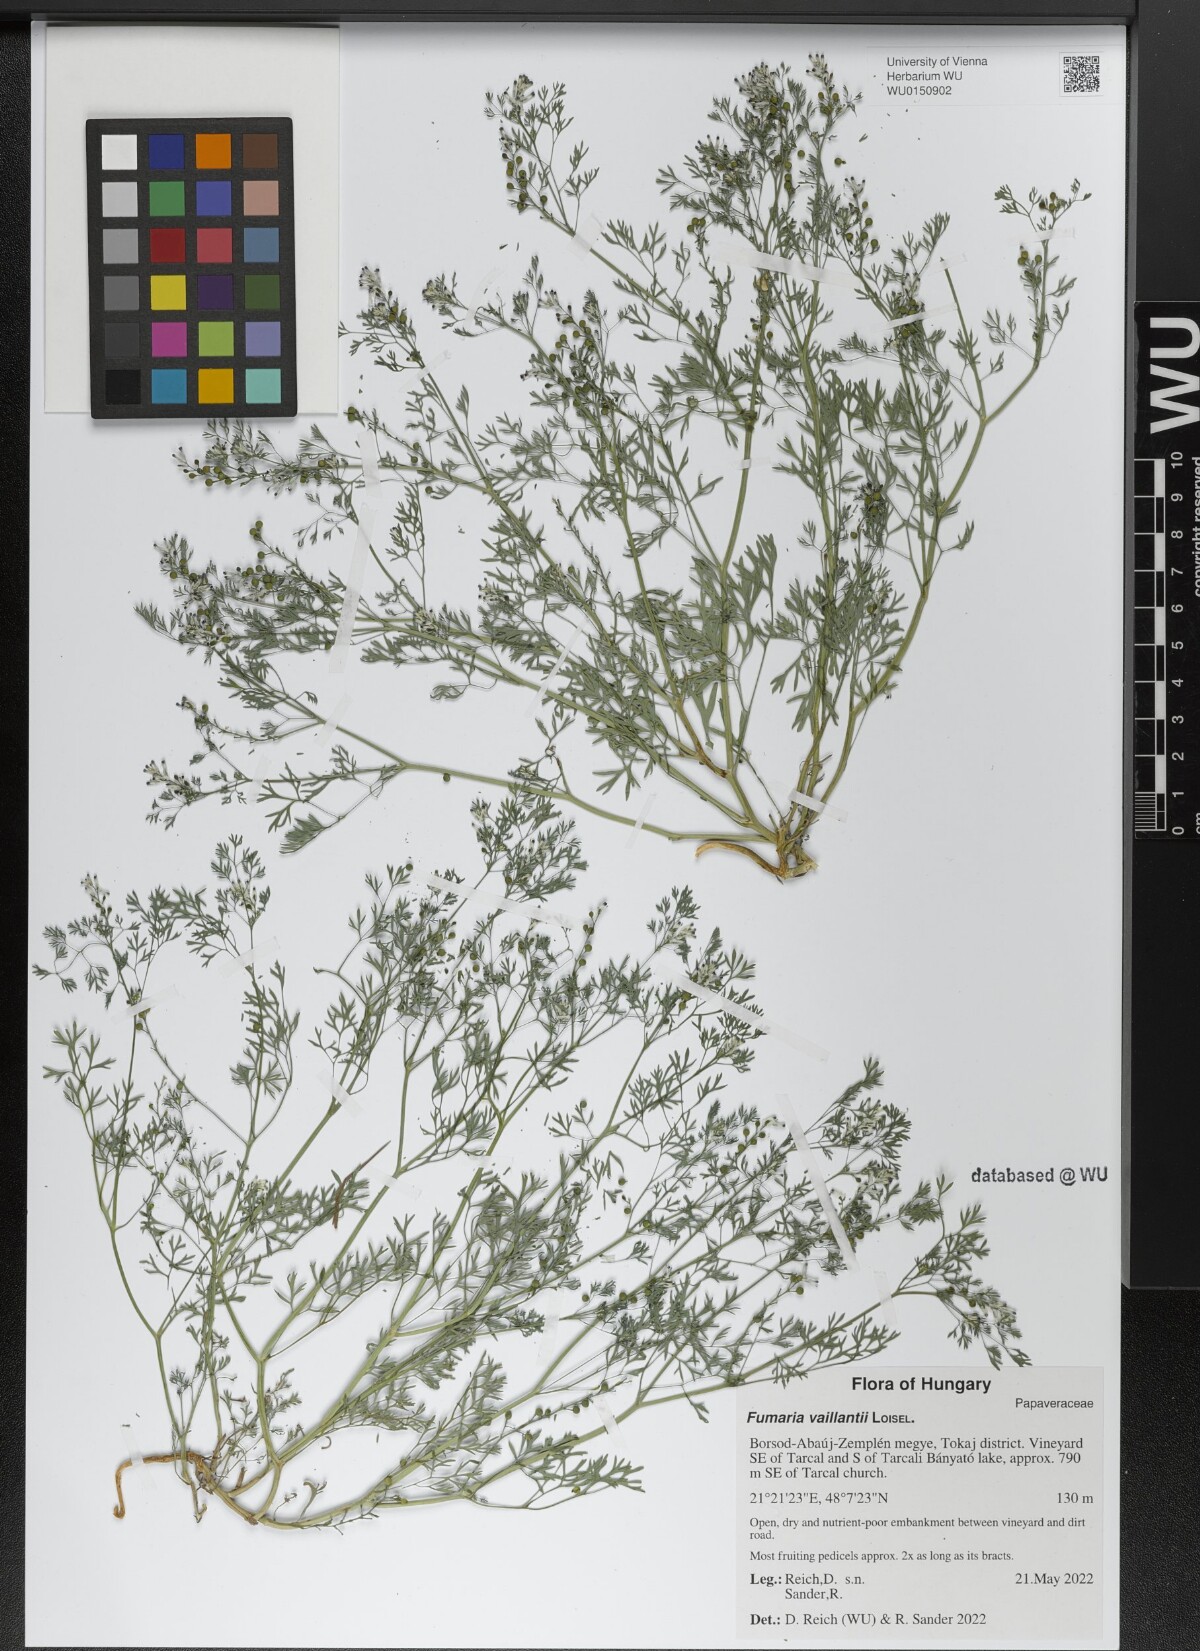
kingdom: Plantae
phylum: Tracheophyta
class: Magnoliopsida
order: Ranunculales
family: Papaveraceae
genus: Fumaria
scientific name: Fumaria vaillantii
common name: Few-flowered fumitory
